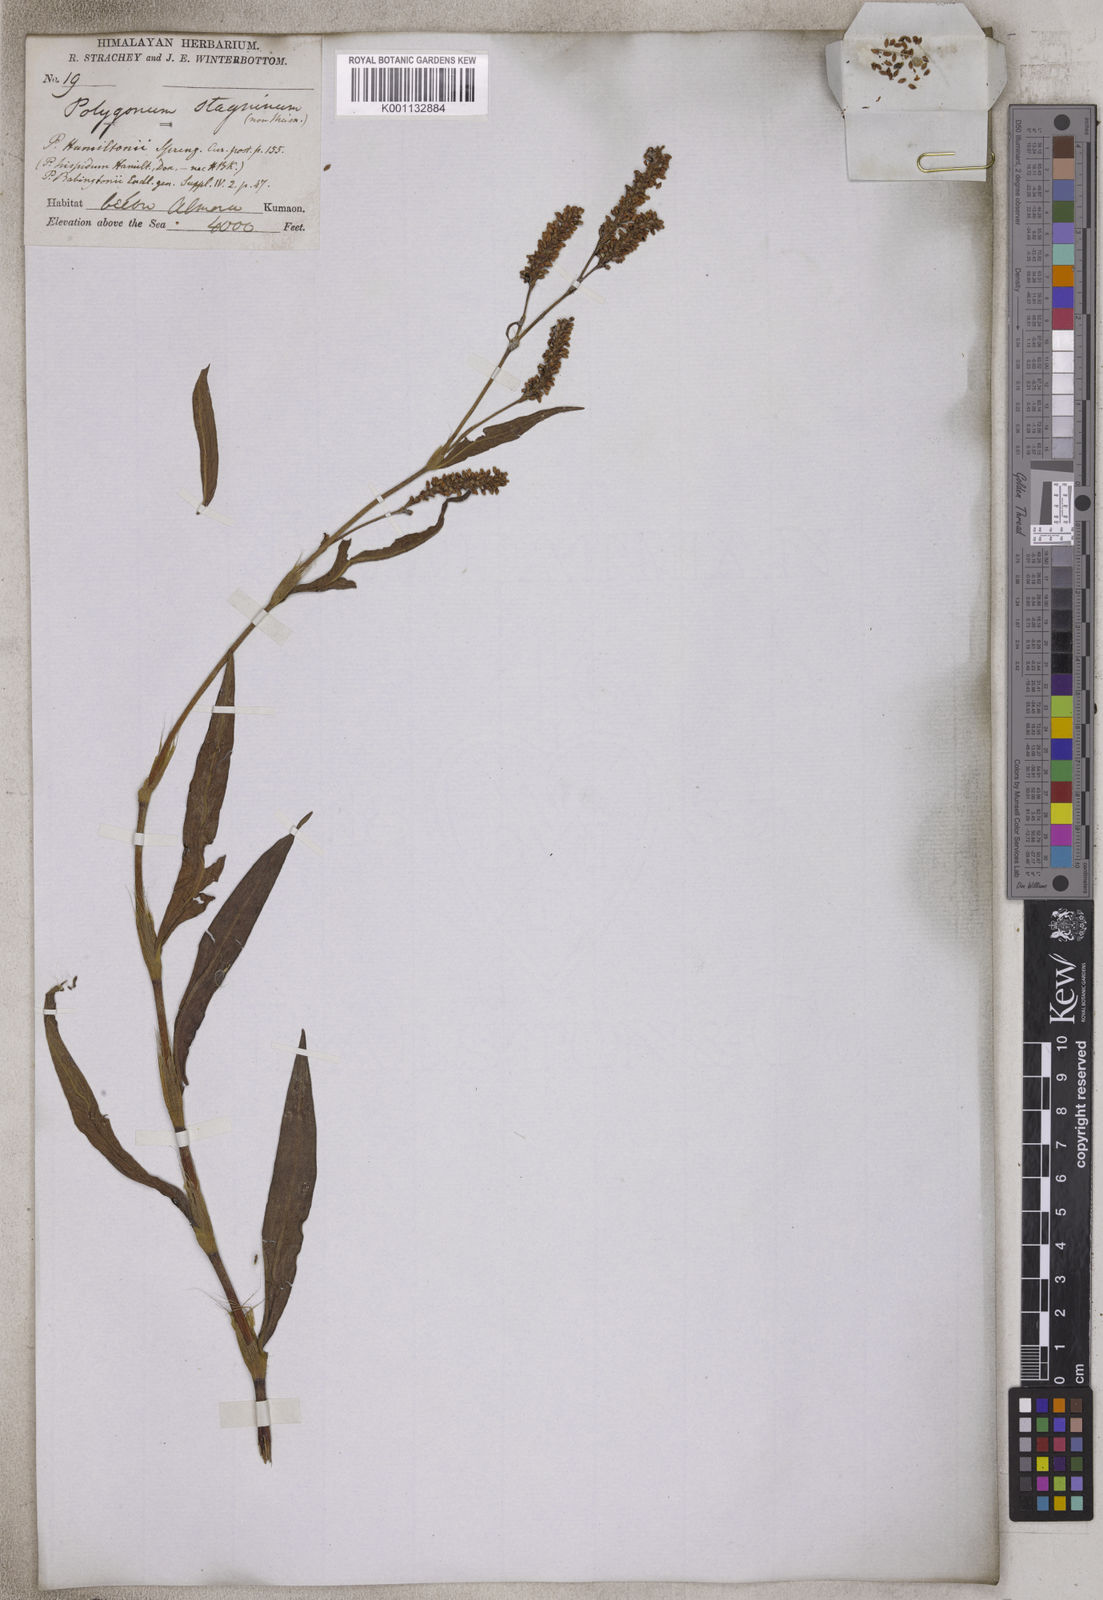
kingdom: Plantae
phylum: Tracheophyta
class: Magnoliopsida
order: Caryophyllales
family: Polygonaceae
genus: Persicaria
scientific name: Persicaria stagnina
